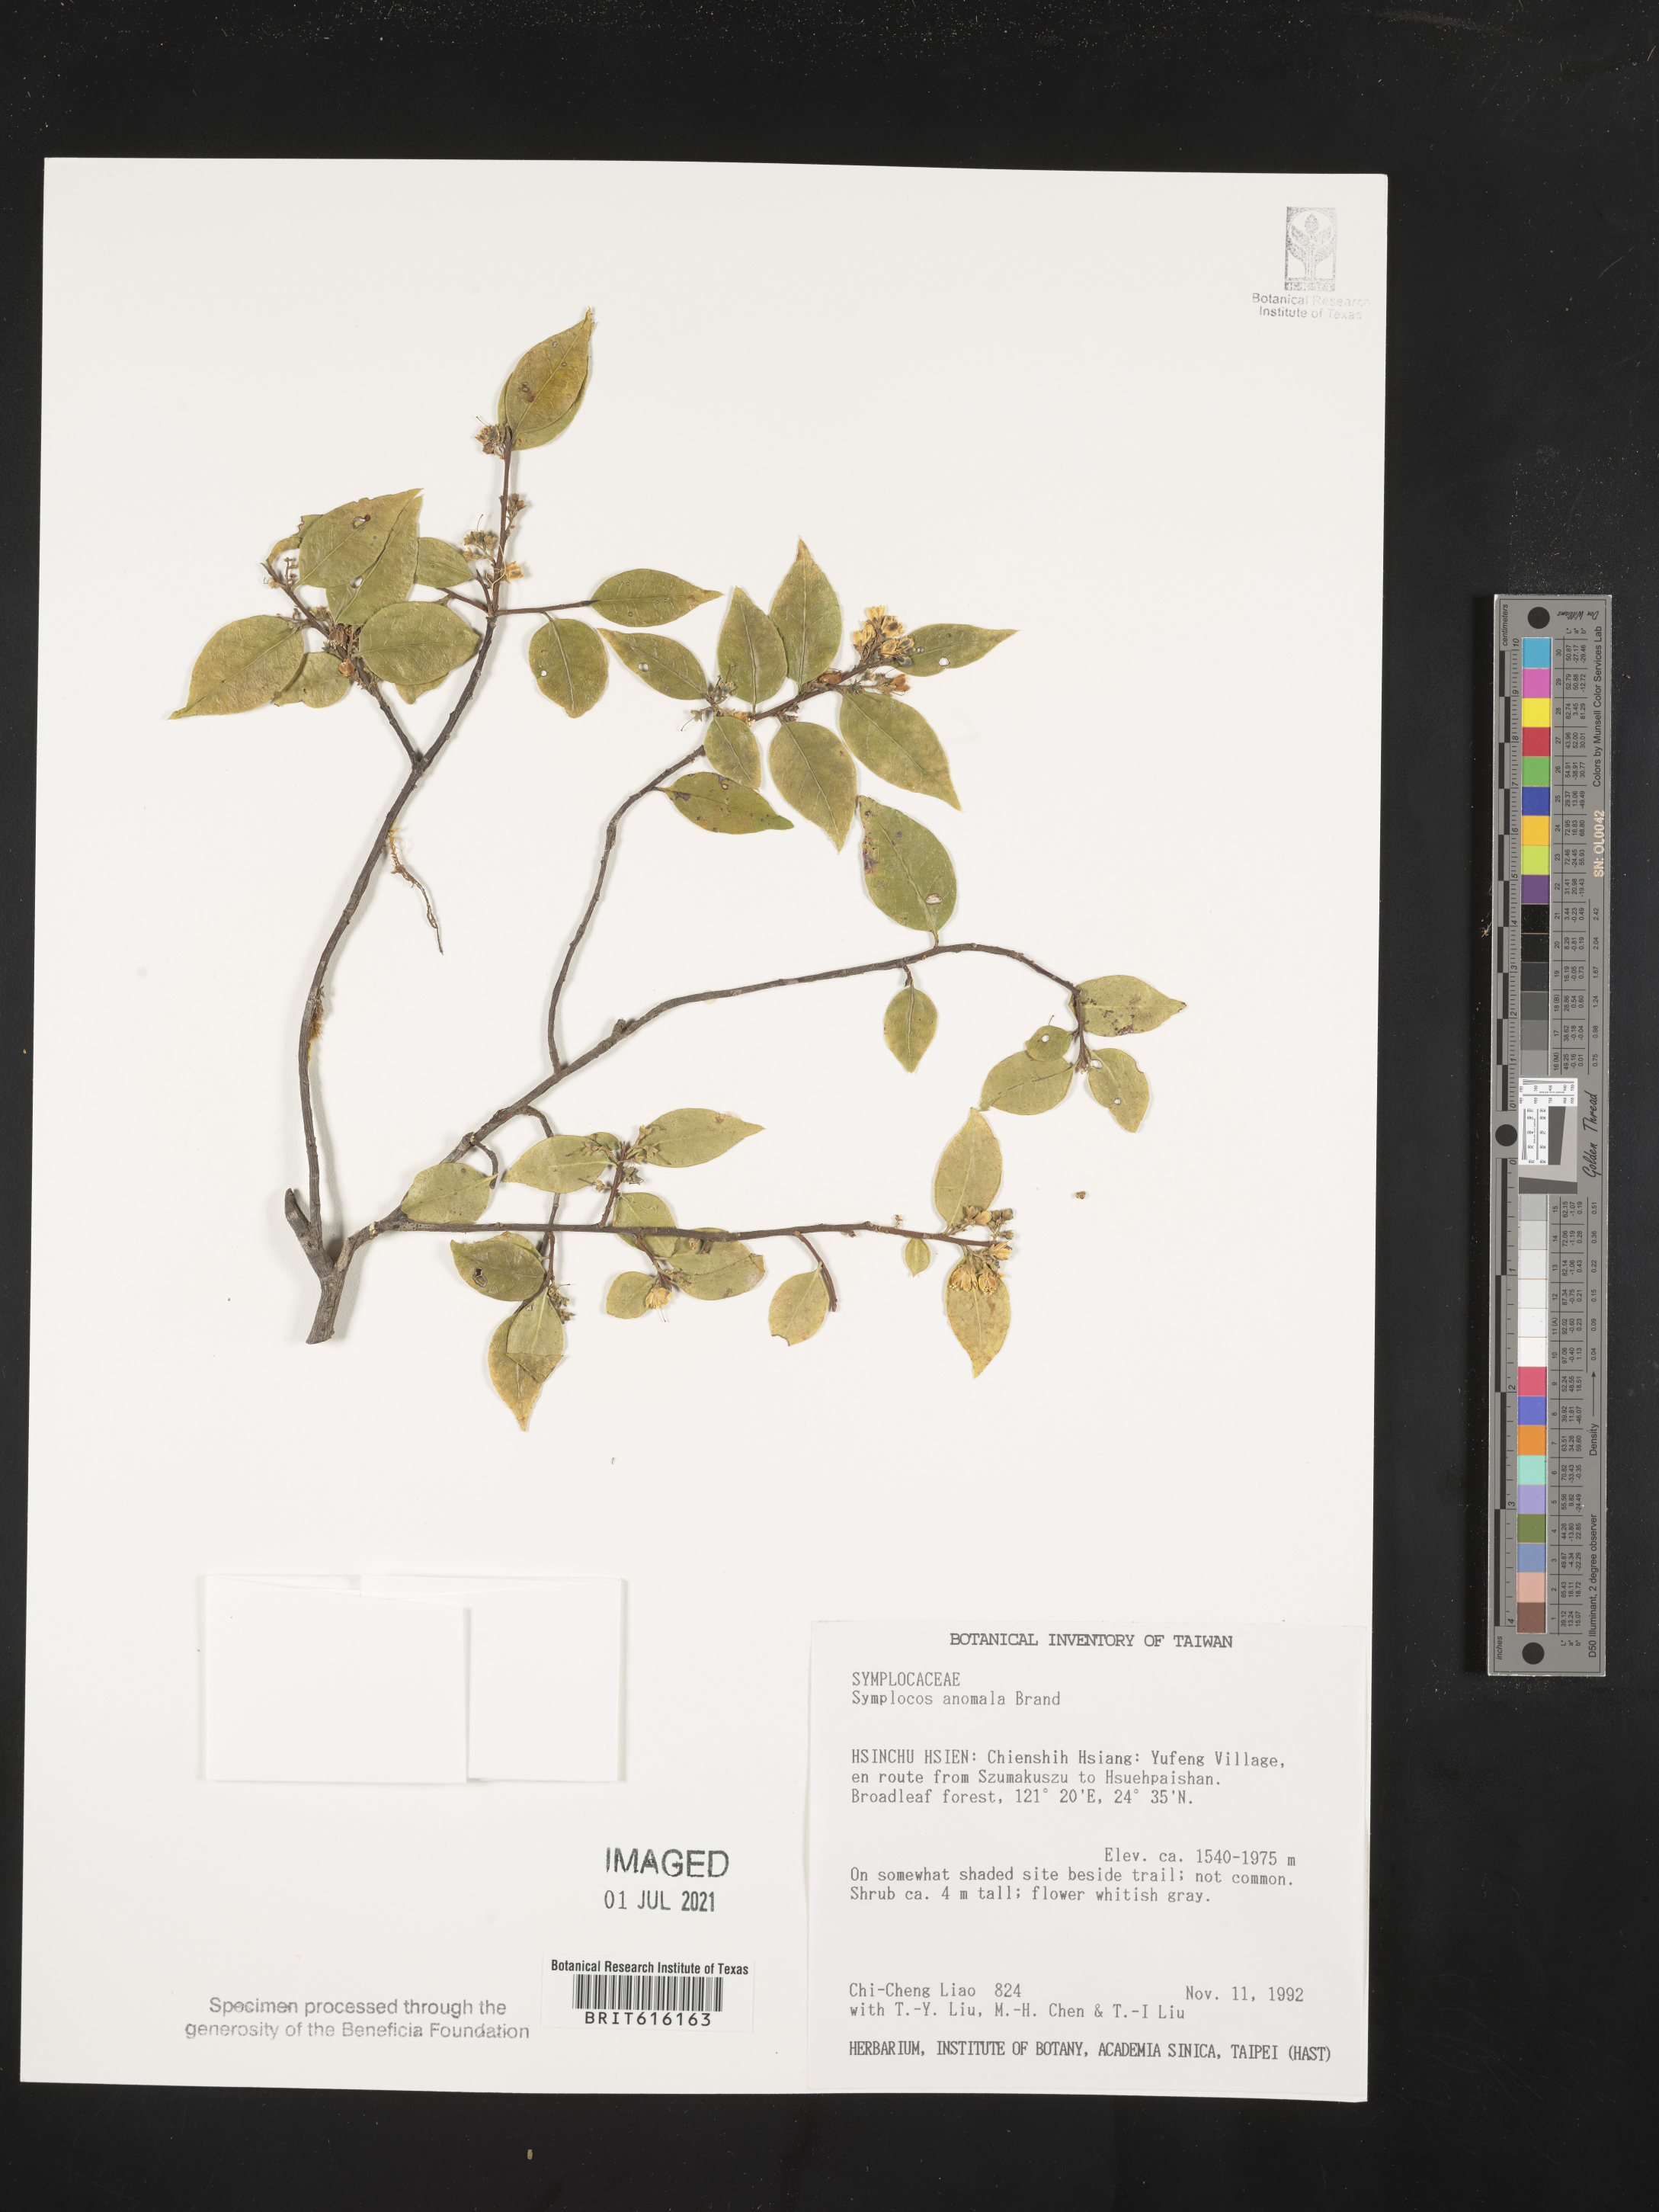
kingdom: Plantae
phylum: Tracheophyta
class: Magnoliopsida
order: Ericales
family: Symplocaceae
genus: Symplocos
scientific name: Symplocos anomala
